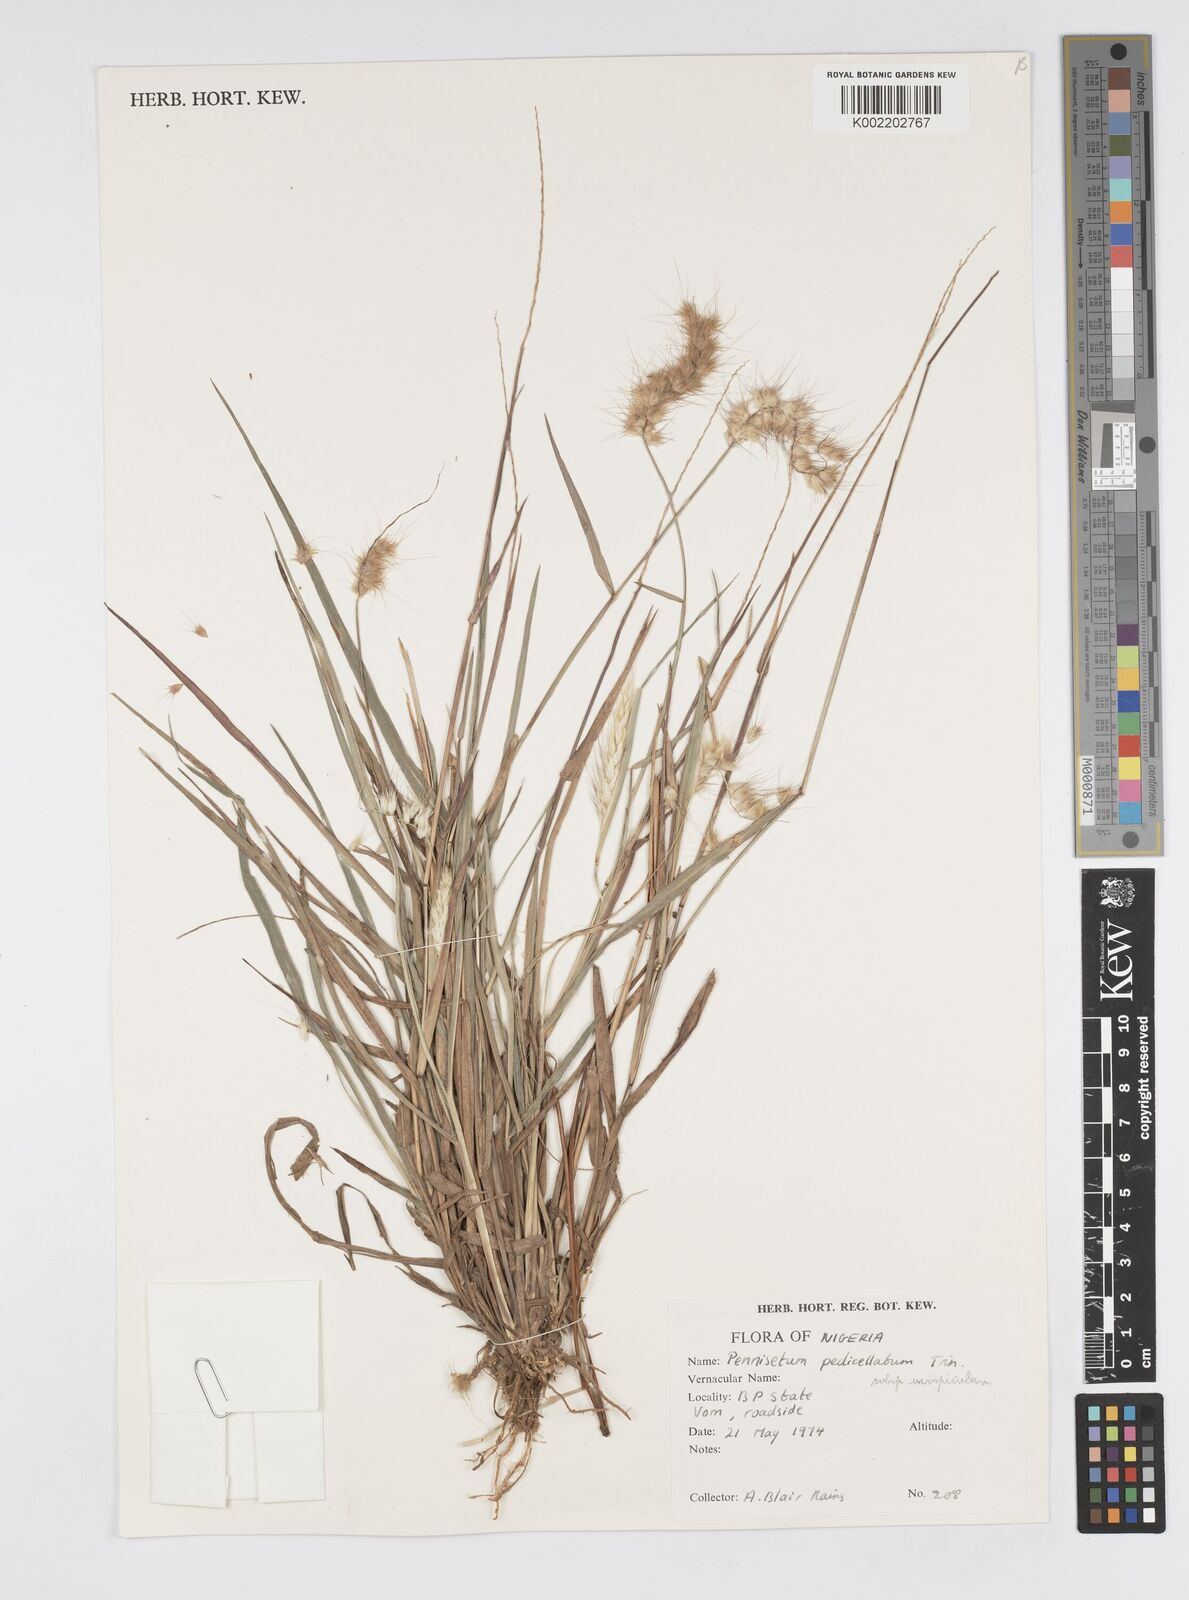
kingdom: Plantae
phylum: Tracheophyta
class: Liliopsida
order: Poales
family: Poaceae
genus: Cenchrus
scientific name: Cenchrus pedicellatus
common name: Hairy fountain grass
